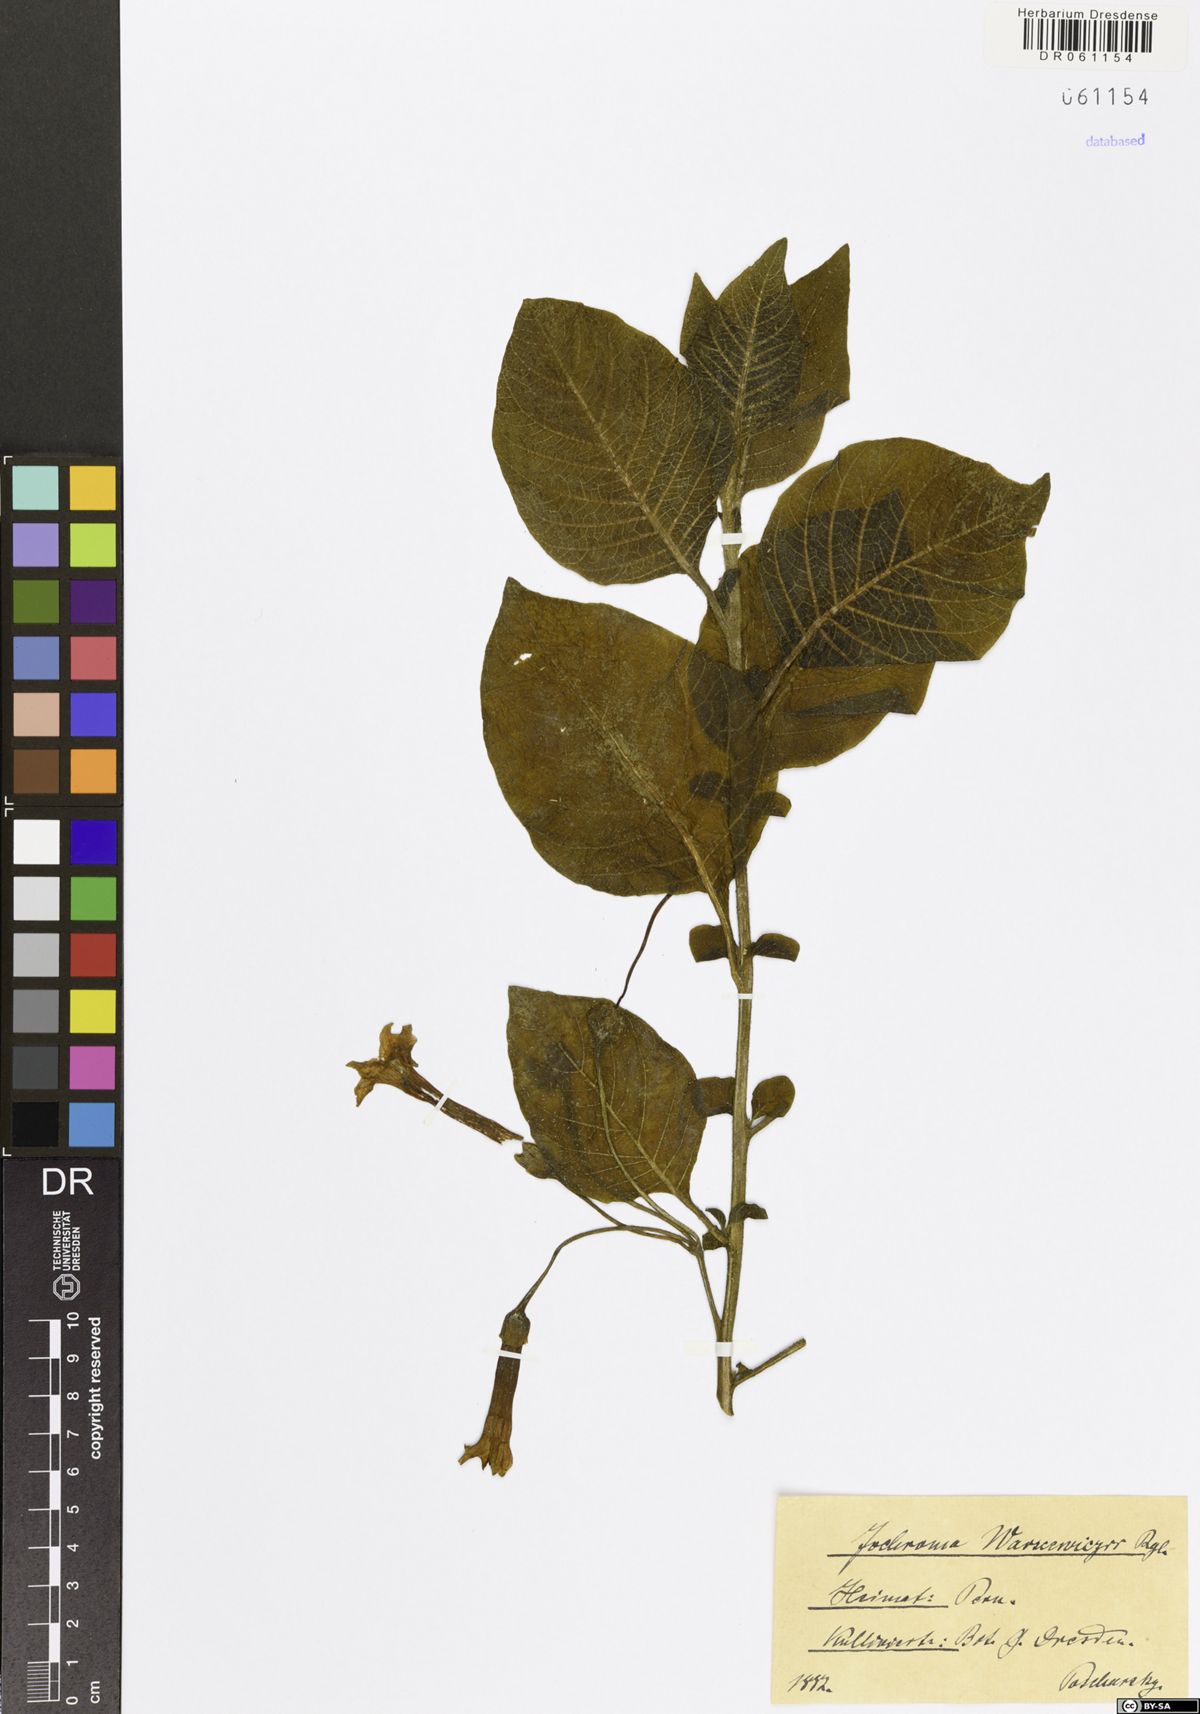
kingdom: Plantae
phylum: Tracheophyta
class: Magnoliopsida
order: Solanales
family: Solanaceae
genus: Iochroma
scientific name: Iochroma warscewiczii
